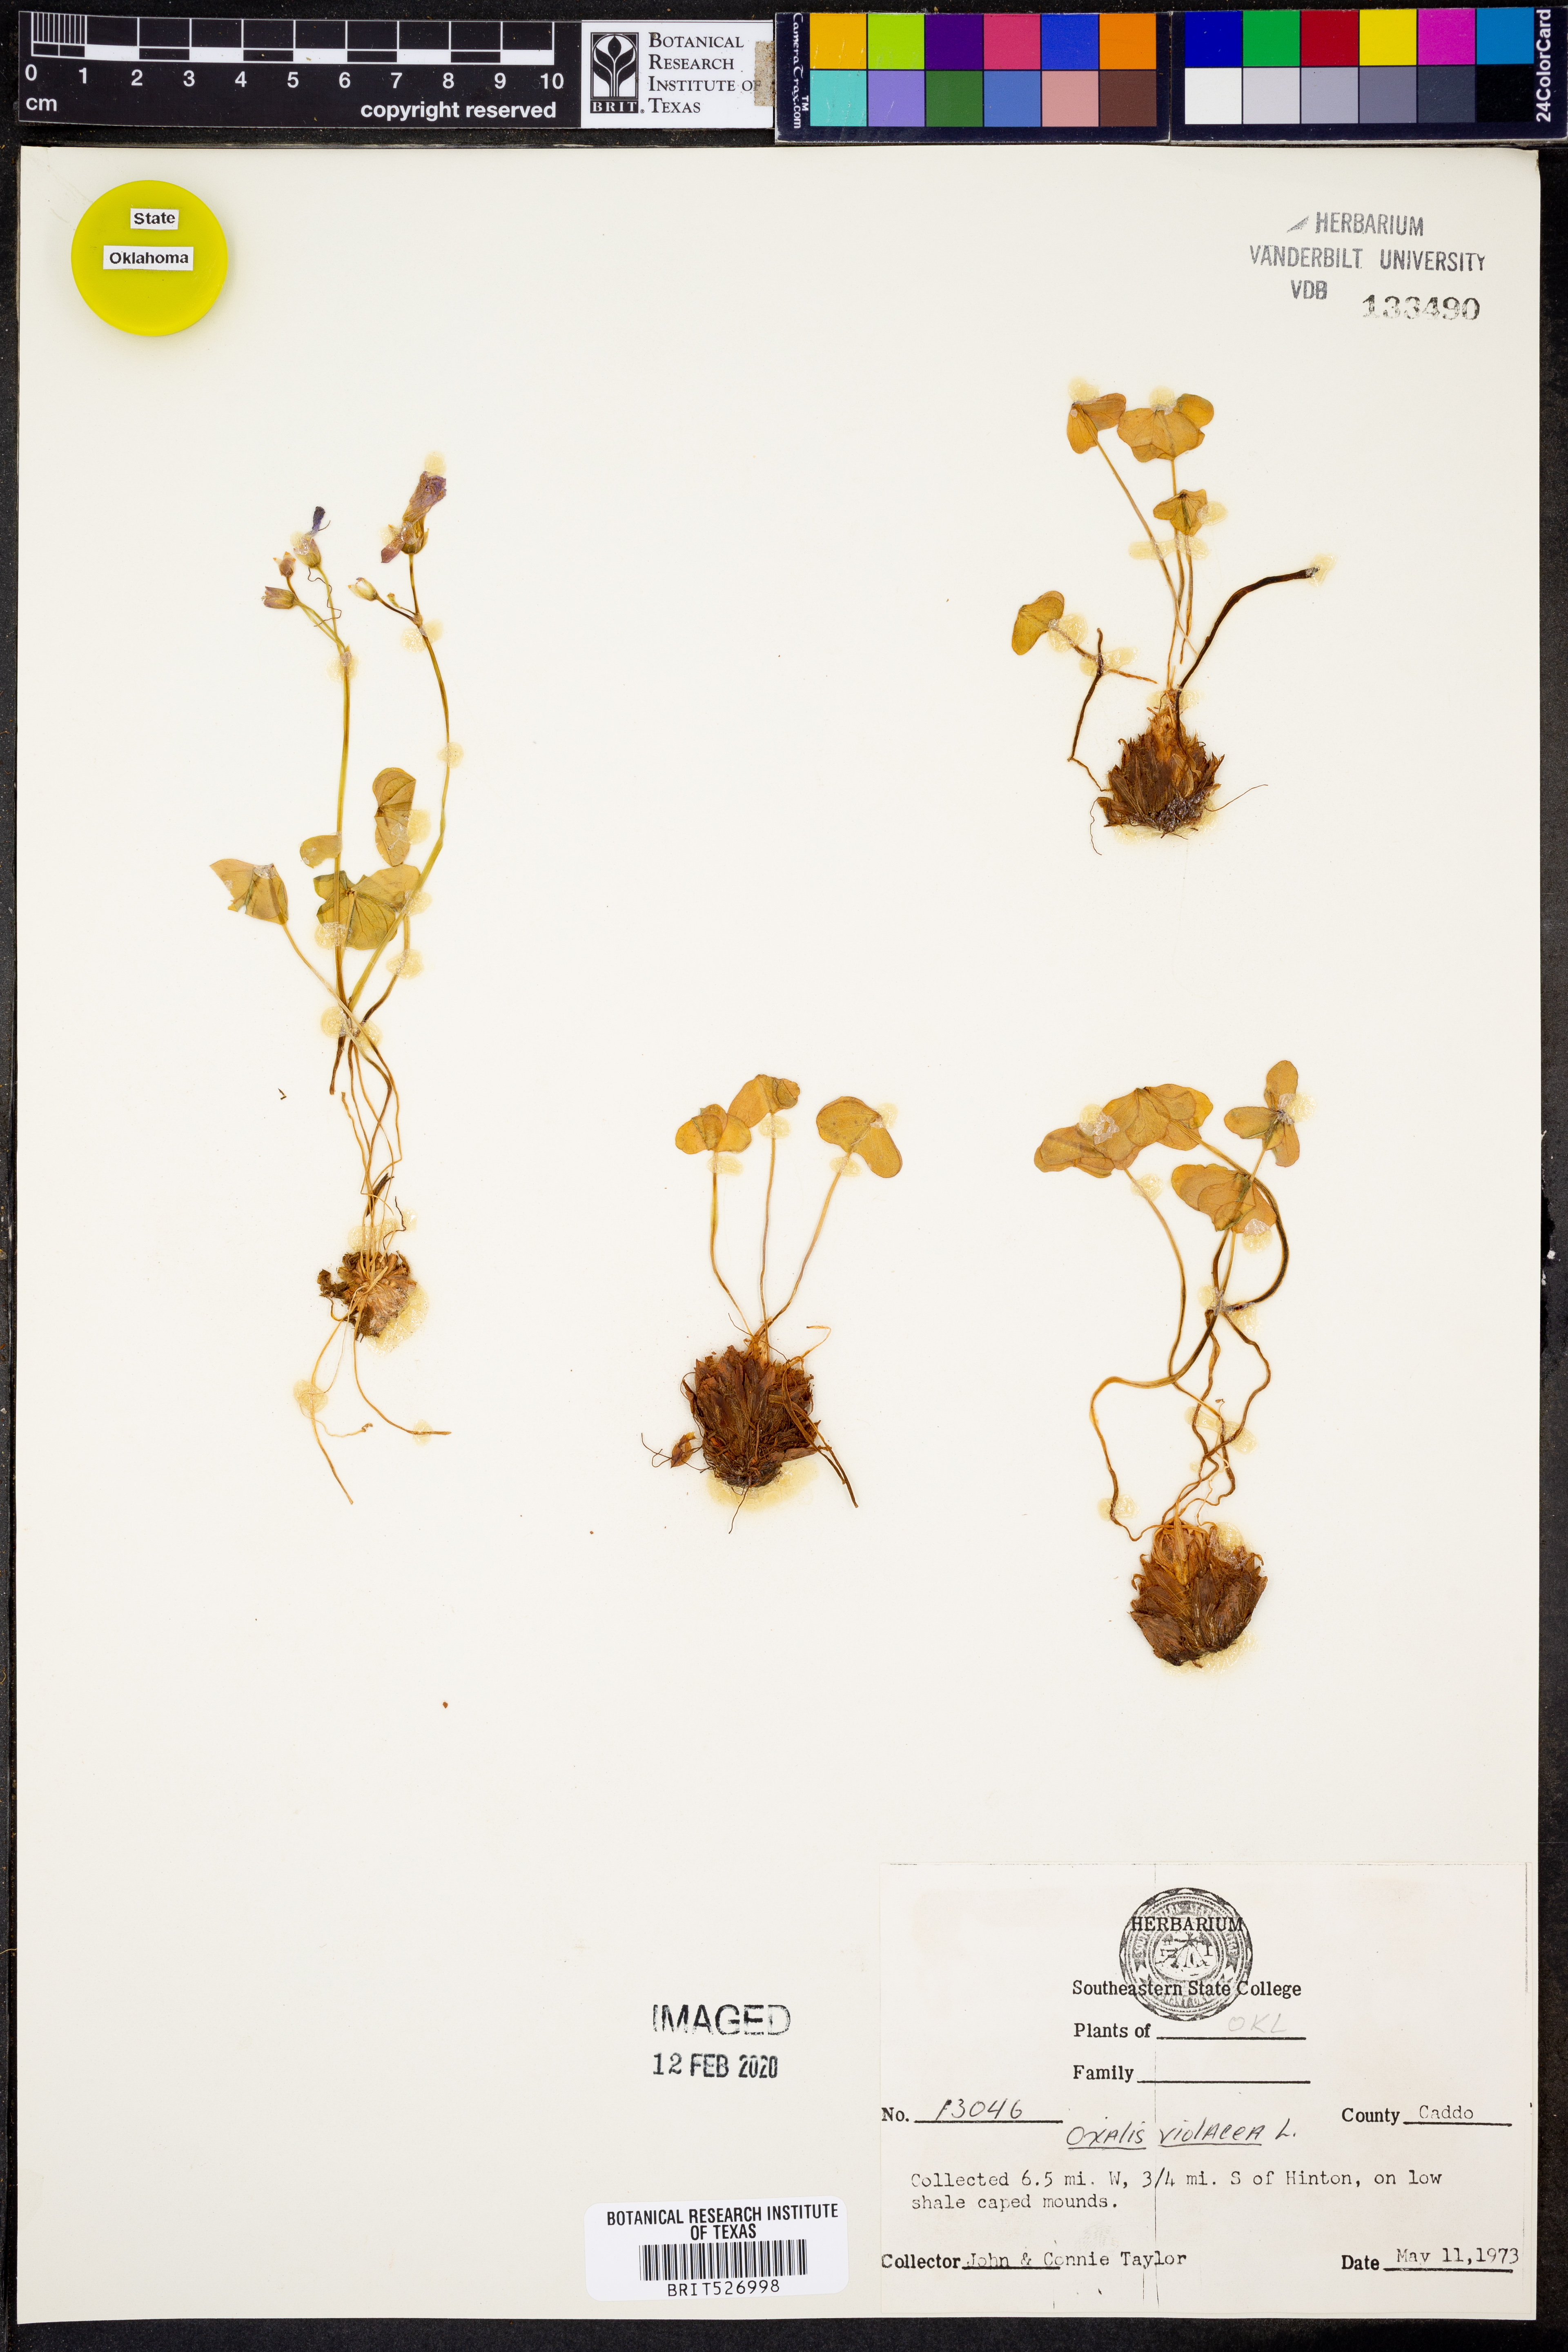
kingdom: Plantae
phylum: Tracheophyta
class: Magnoliopsida
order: Oxalidales
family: Oxalidaceae
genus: Oxalis
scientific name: Oxalis violacea
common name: Violet wood-sorrel
